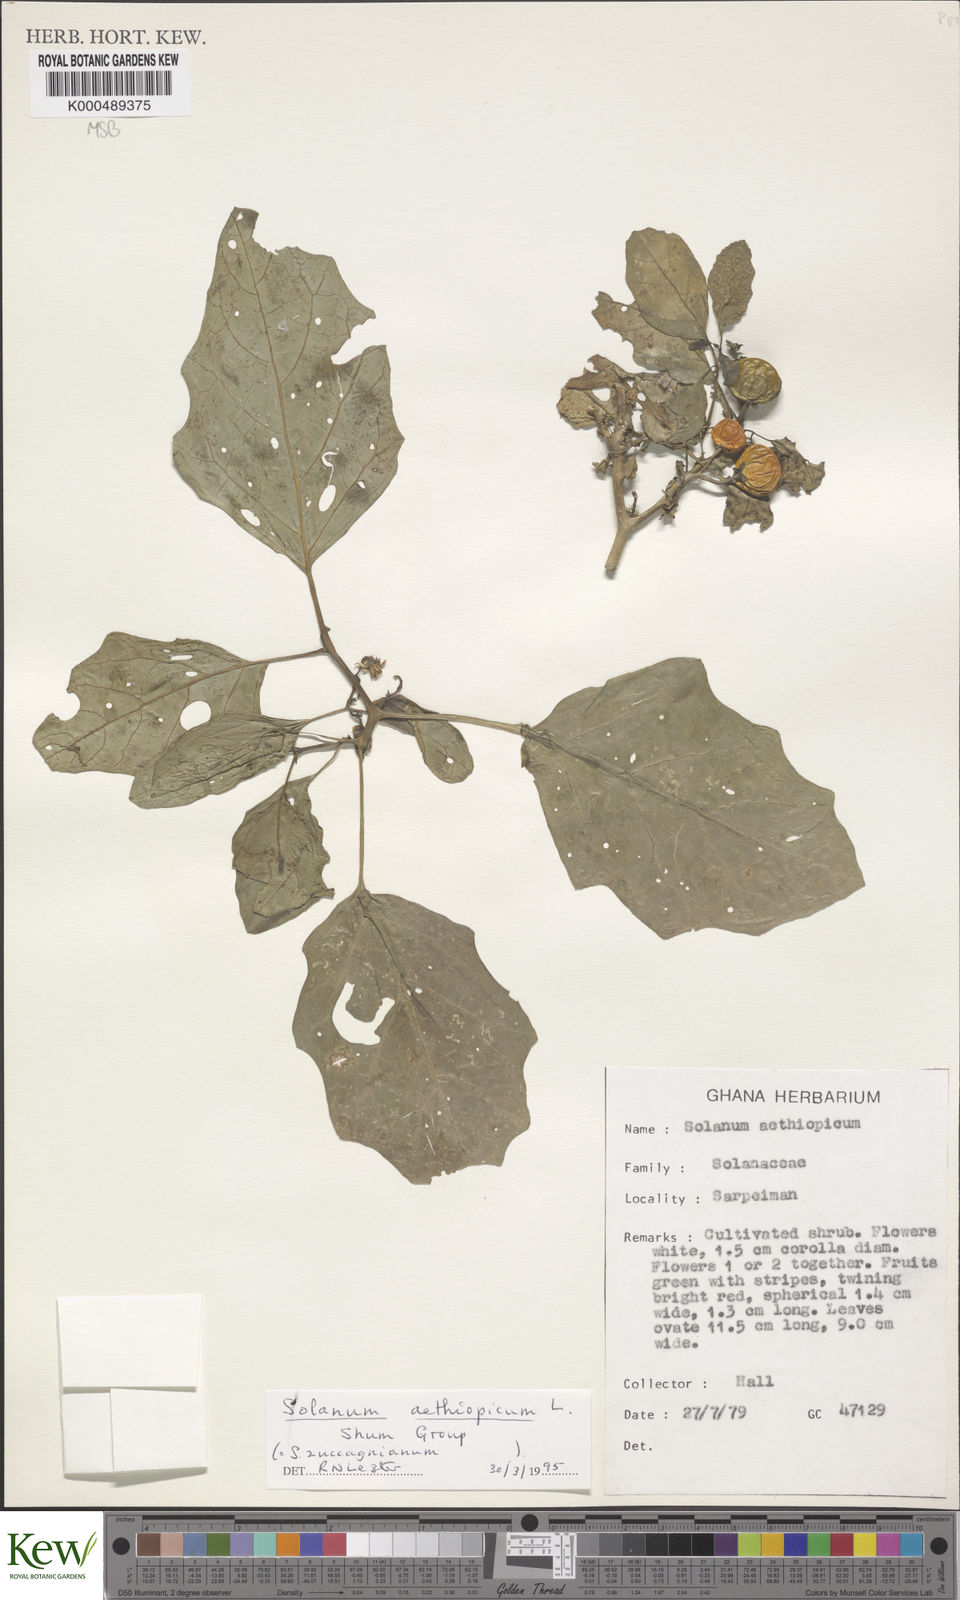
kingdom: Plantae
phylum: Tracheophyta
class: Magnoliopsida
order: Solanales
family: Solanaceae
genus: Solanum
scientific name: Solanum aethiopicum
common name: Gilo
